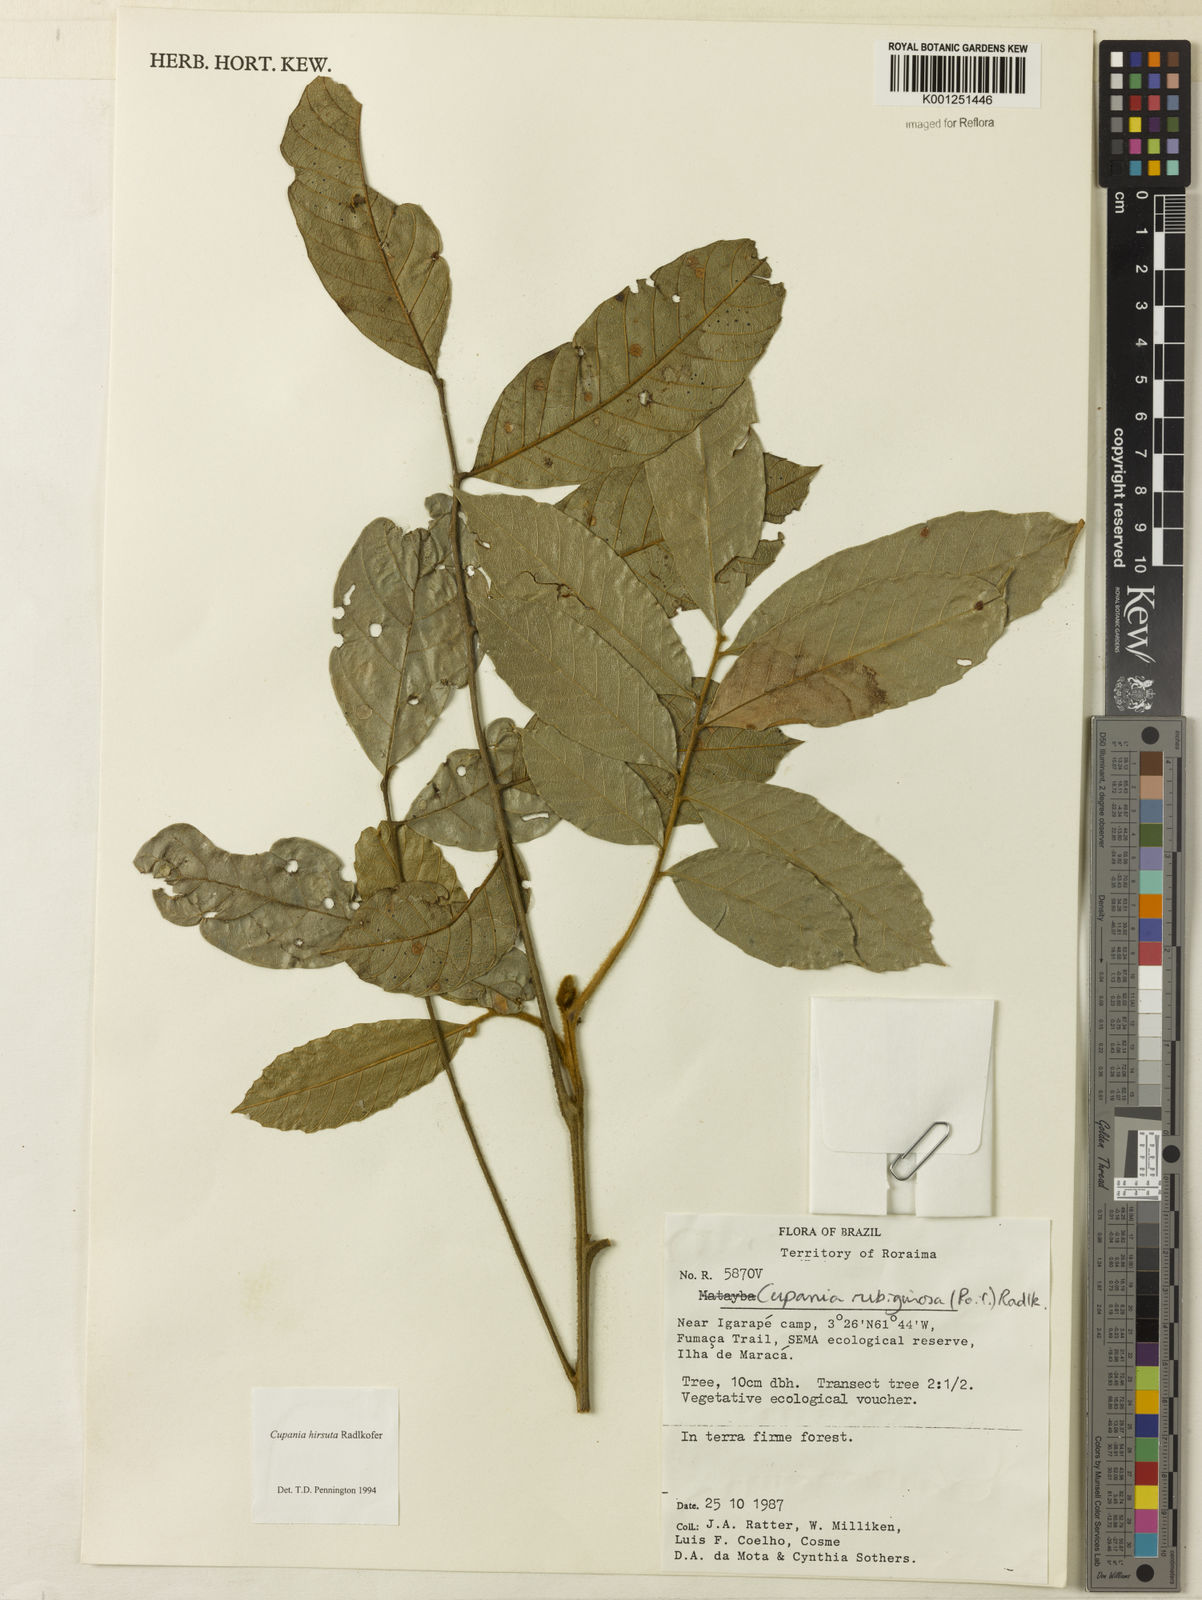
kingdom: Plantae
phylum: Tracheophyta
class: Magnoliopsida
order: Sapindales
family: Sapindaceae
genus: Cupania
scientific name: Cupania hirsuta
